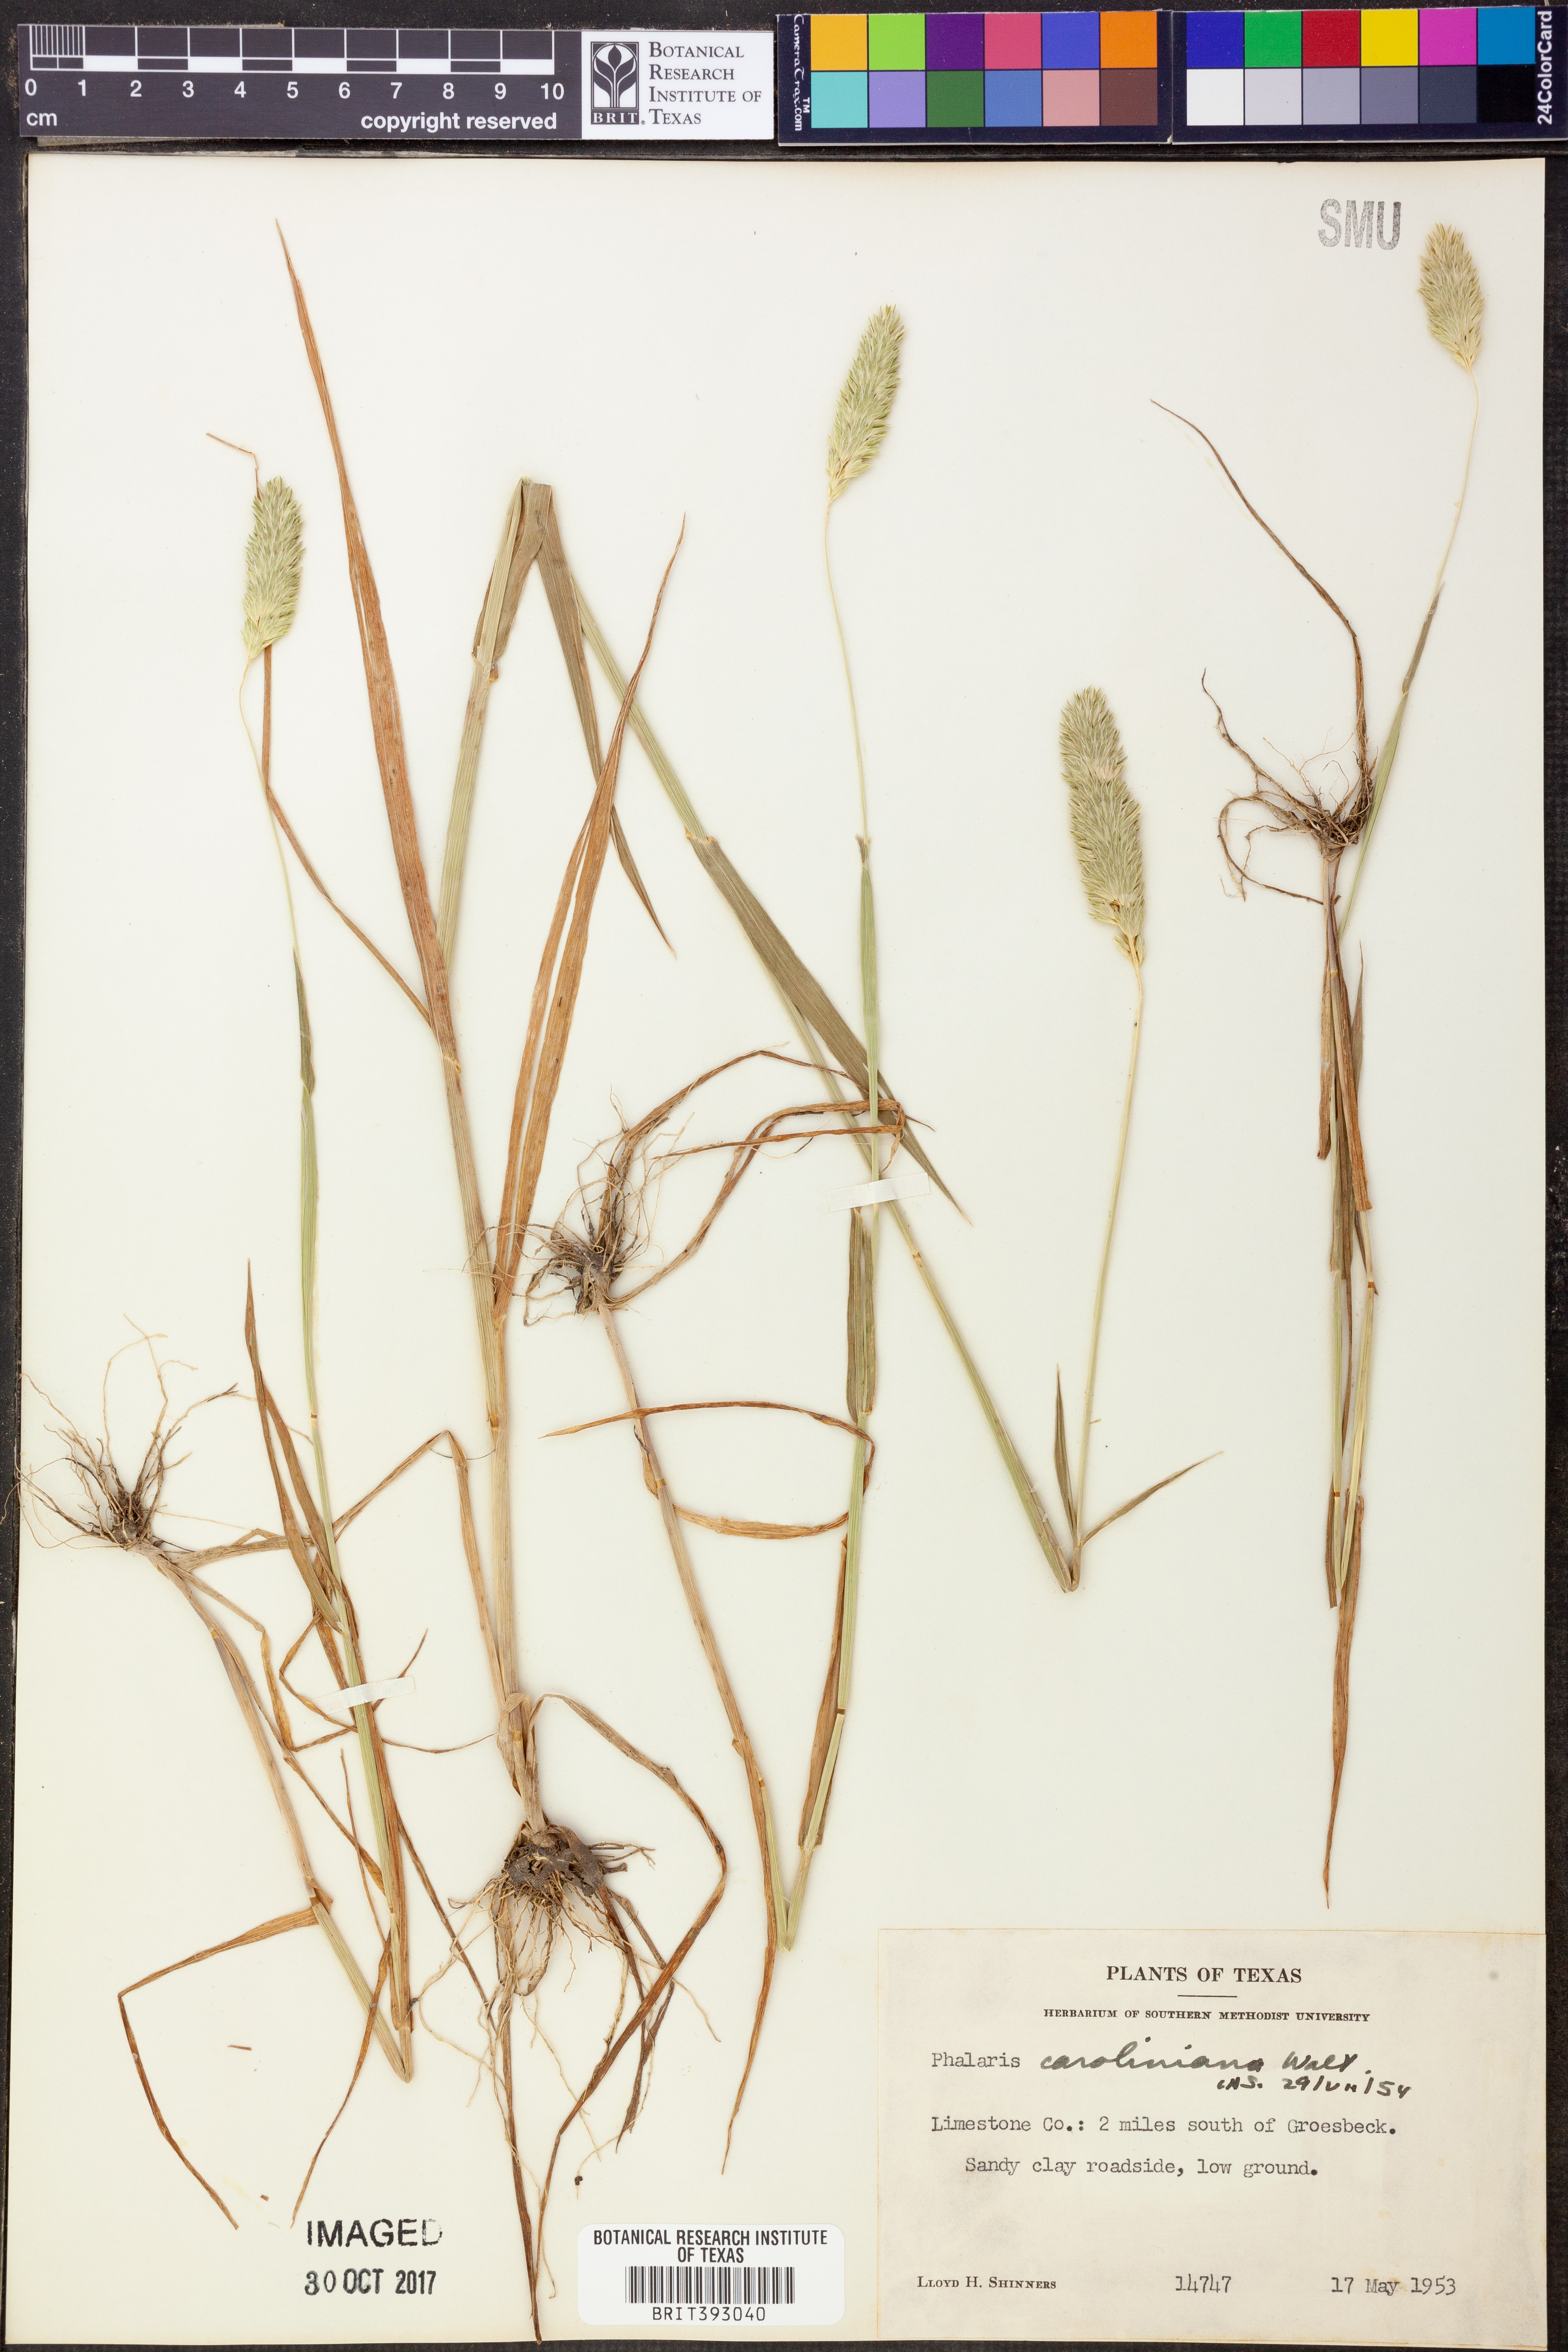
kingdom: Plantae
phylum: Tracheophyta
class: Liliopsida
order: Poales
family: Poaceae
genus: Phalaris
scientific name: Phalaris caroliniana
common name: May grass
